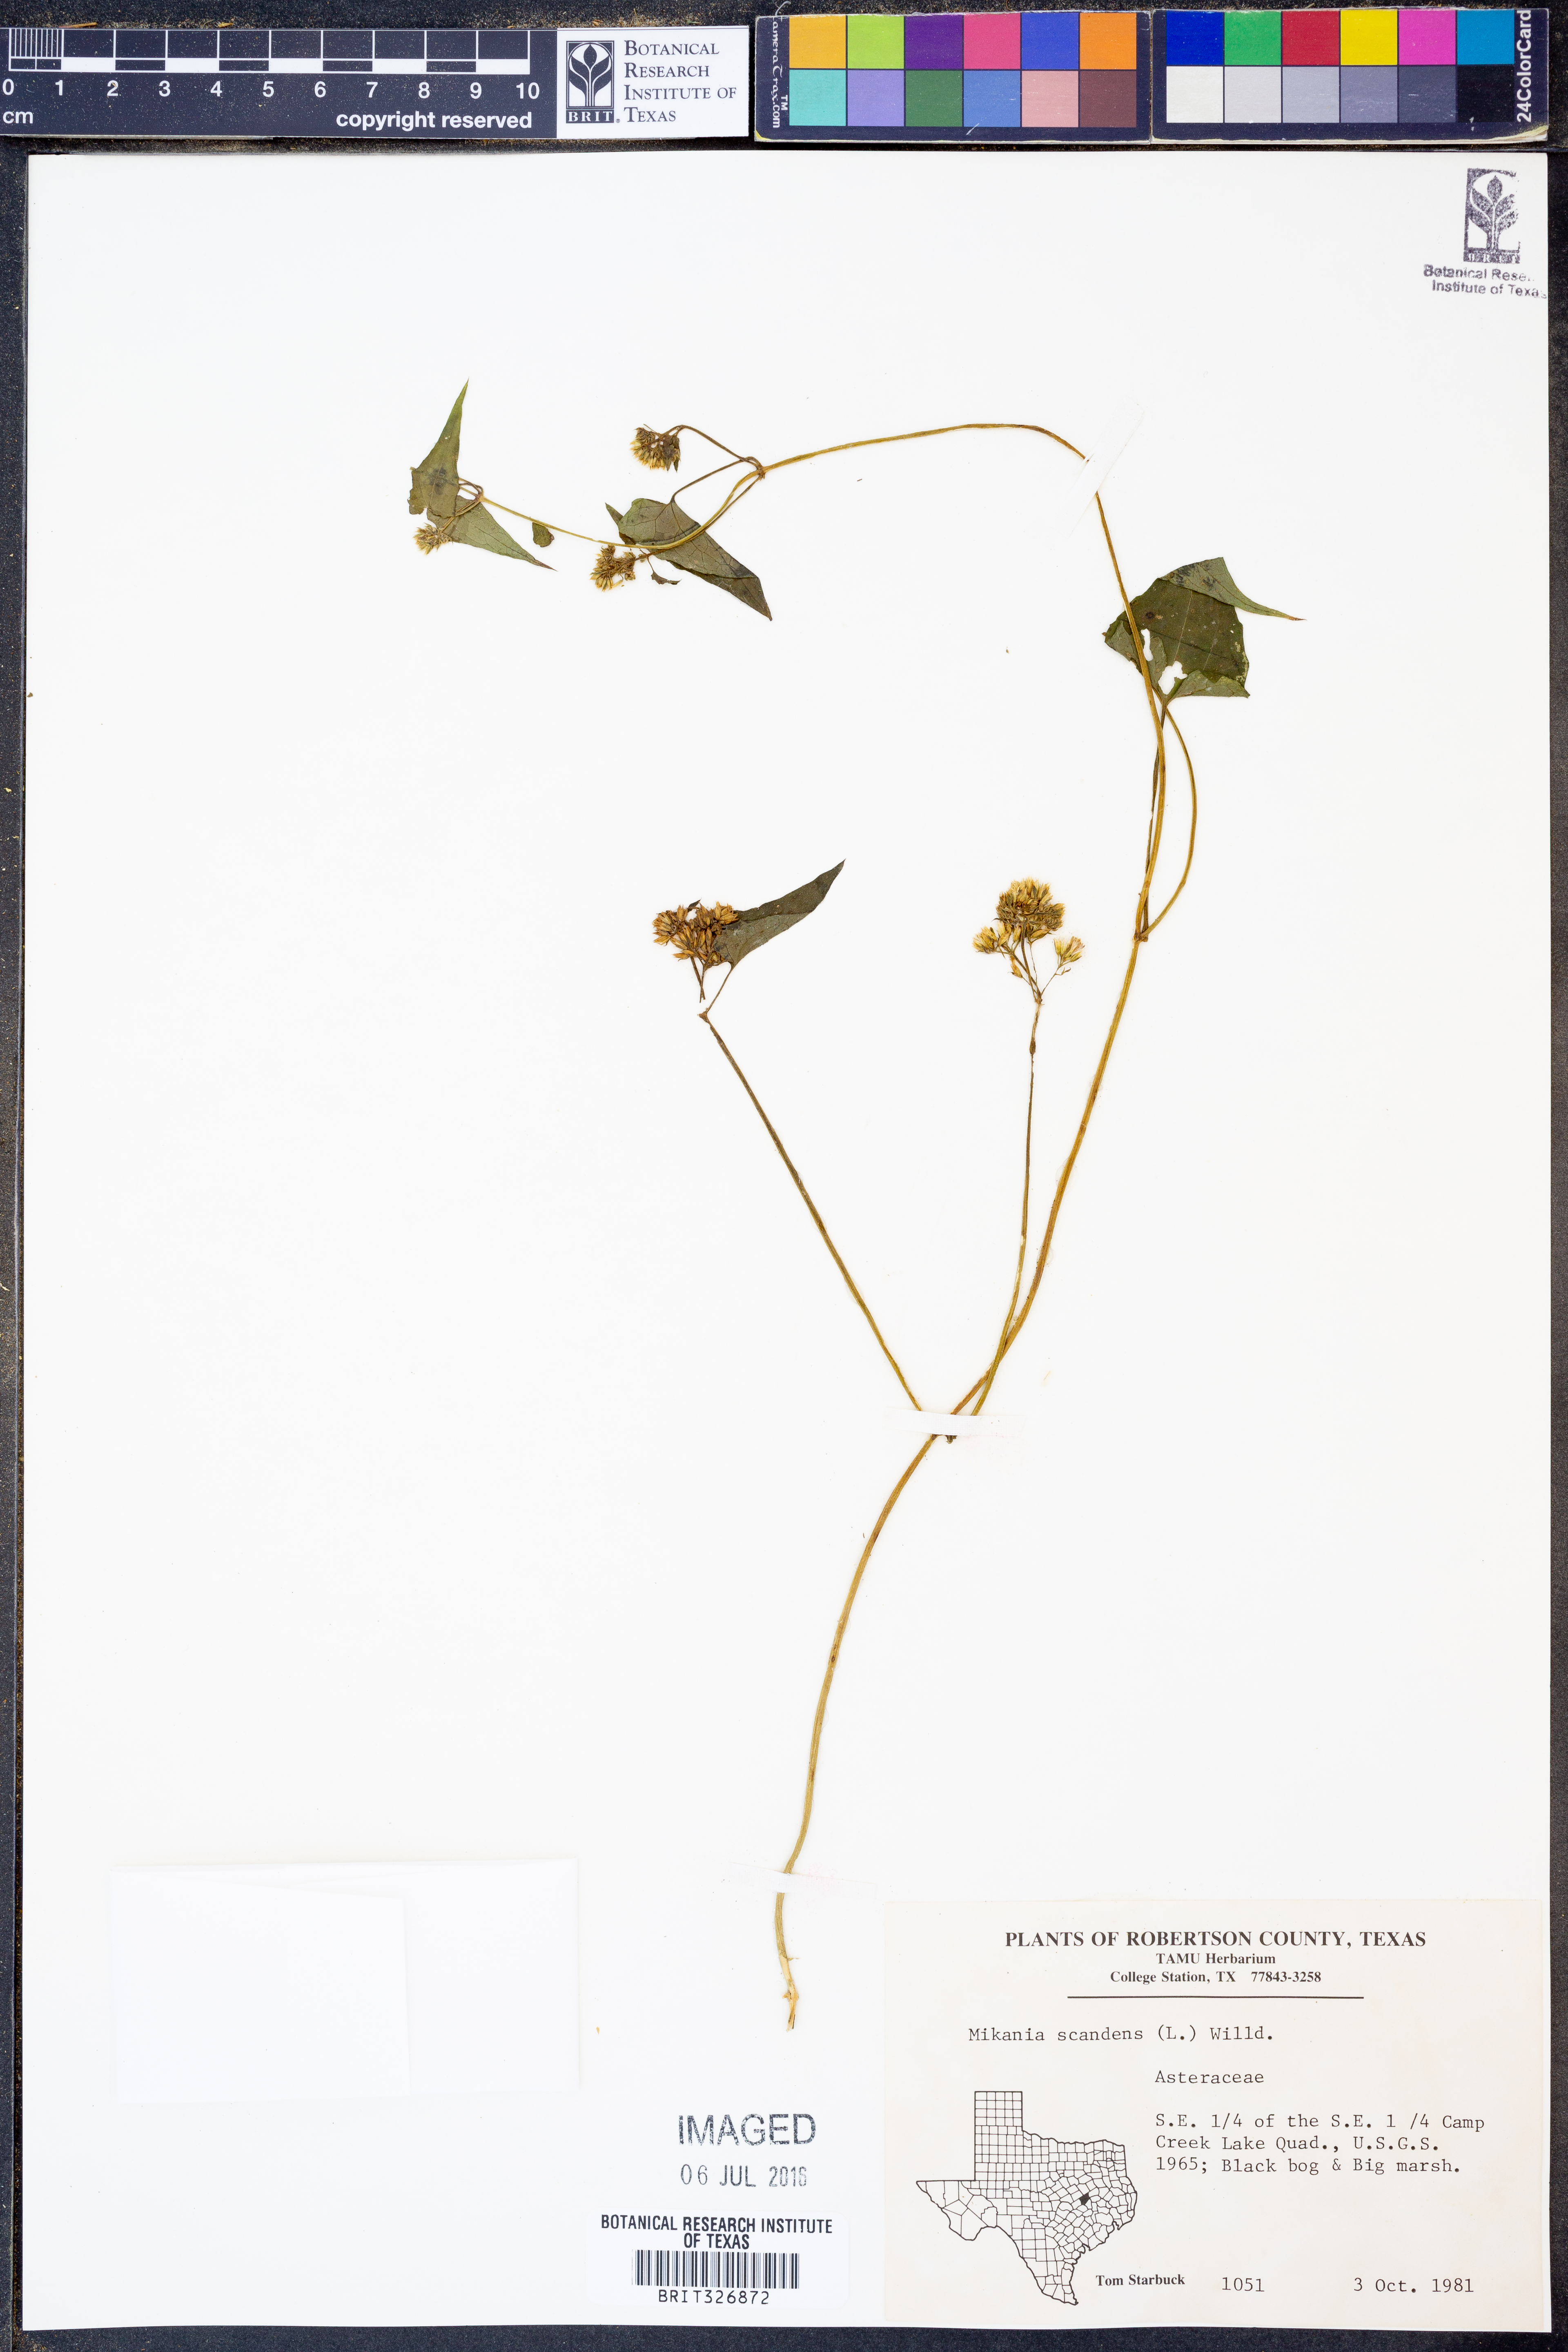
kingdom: Plantae
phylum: Tracheophyta
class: Magnoliopsida
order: Asterales
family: Asteraceae
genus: Mikania
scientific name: Mikania scandens
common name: Climbing hempvine
